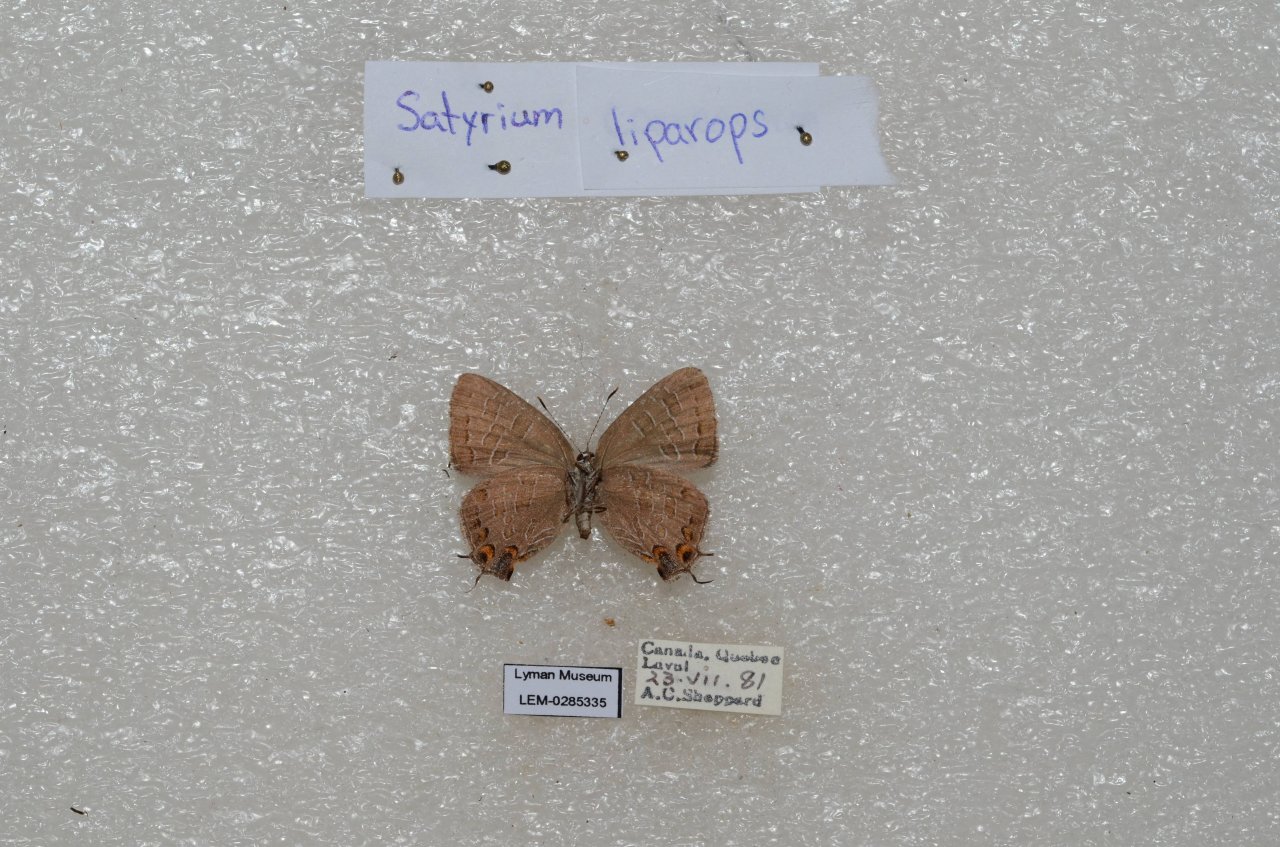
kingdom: Animalia
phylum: Arthropoda
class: Insecta
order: Lepidoptera
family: Lycaenidae
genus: Satyrium
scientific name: Satyrium liparops
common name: Striped Hairstreak
